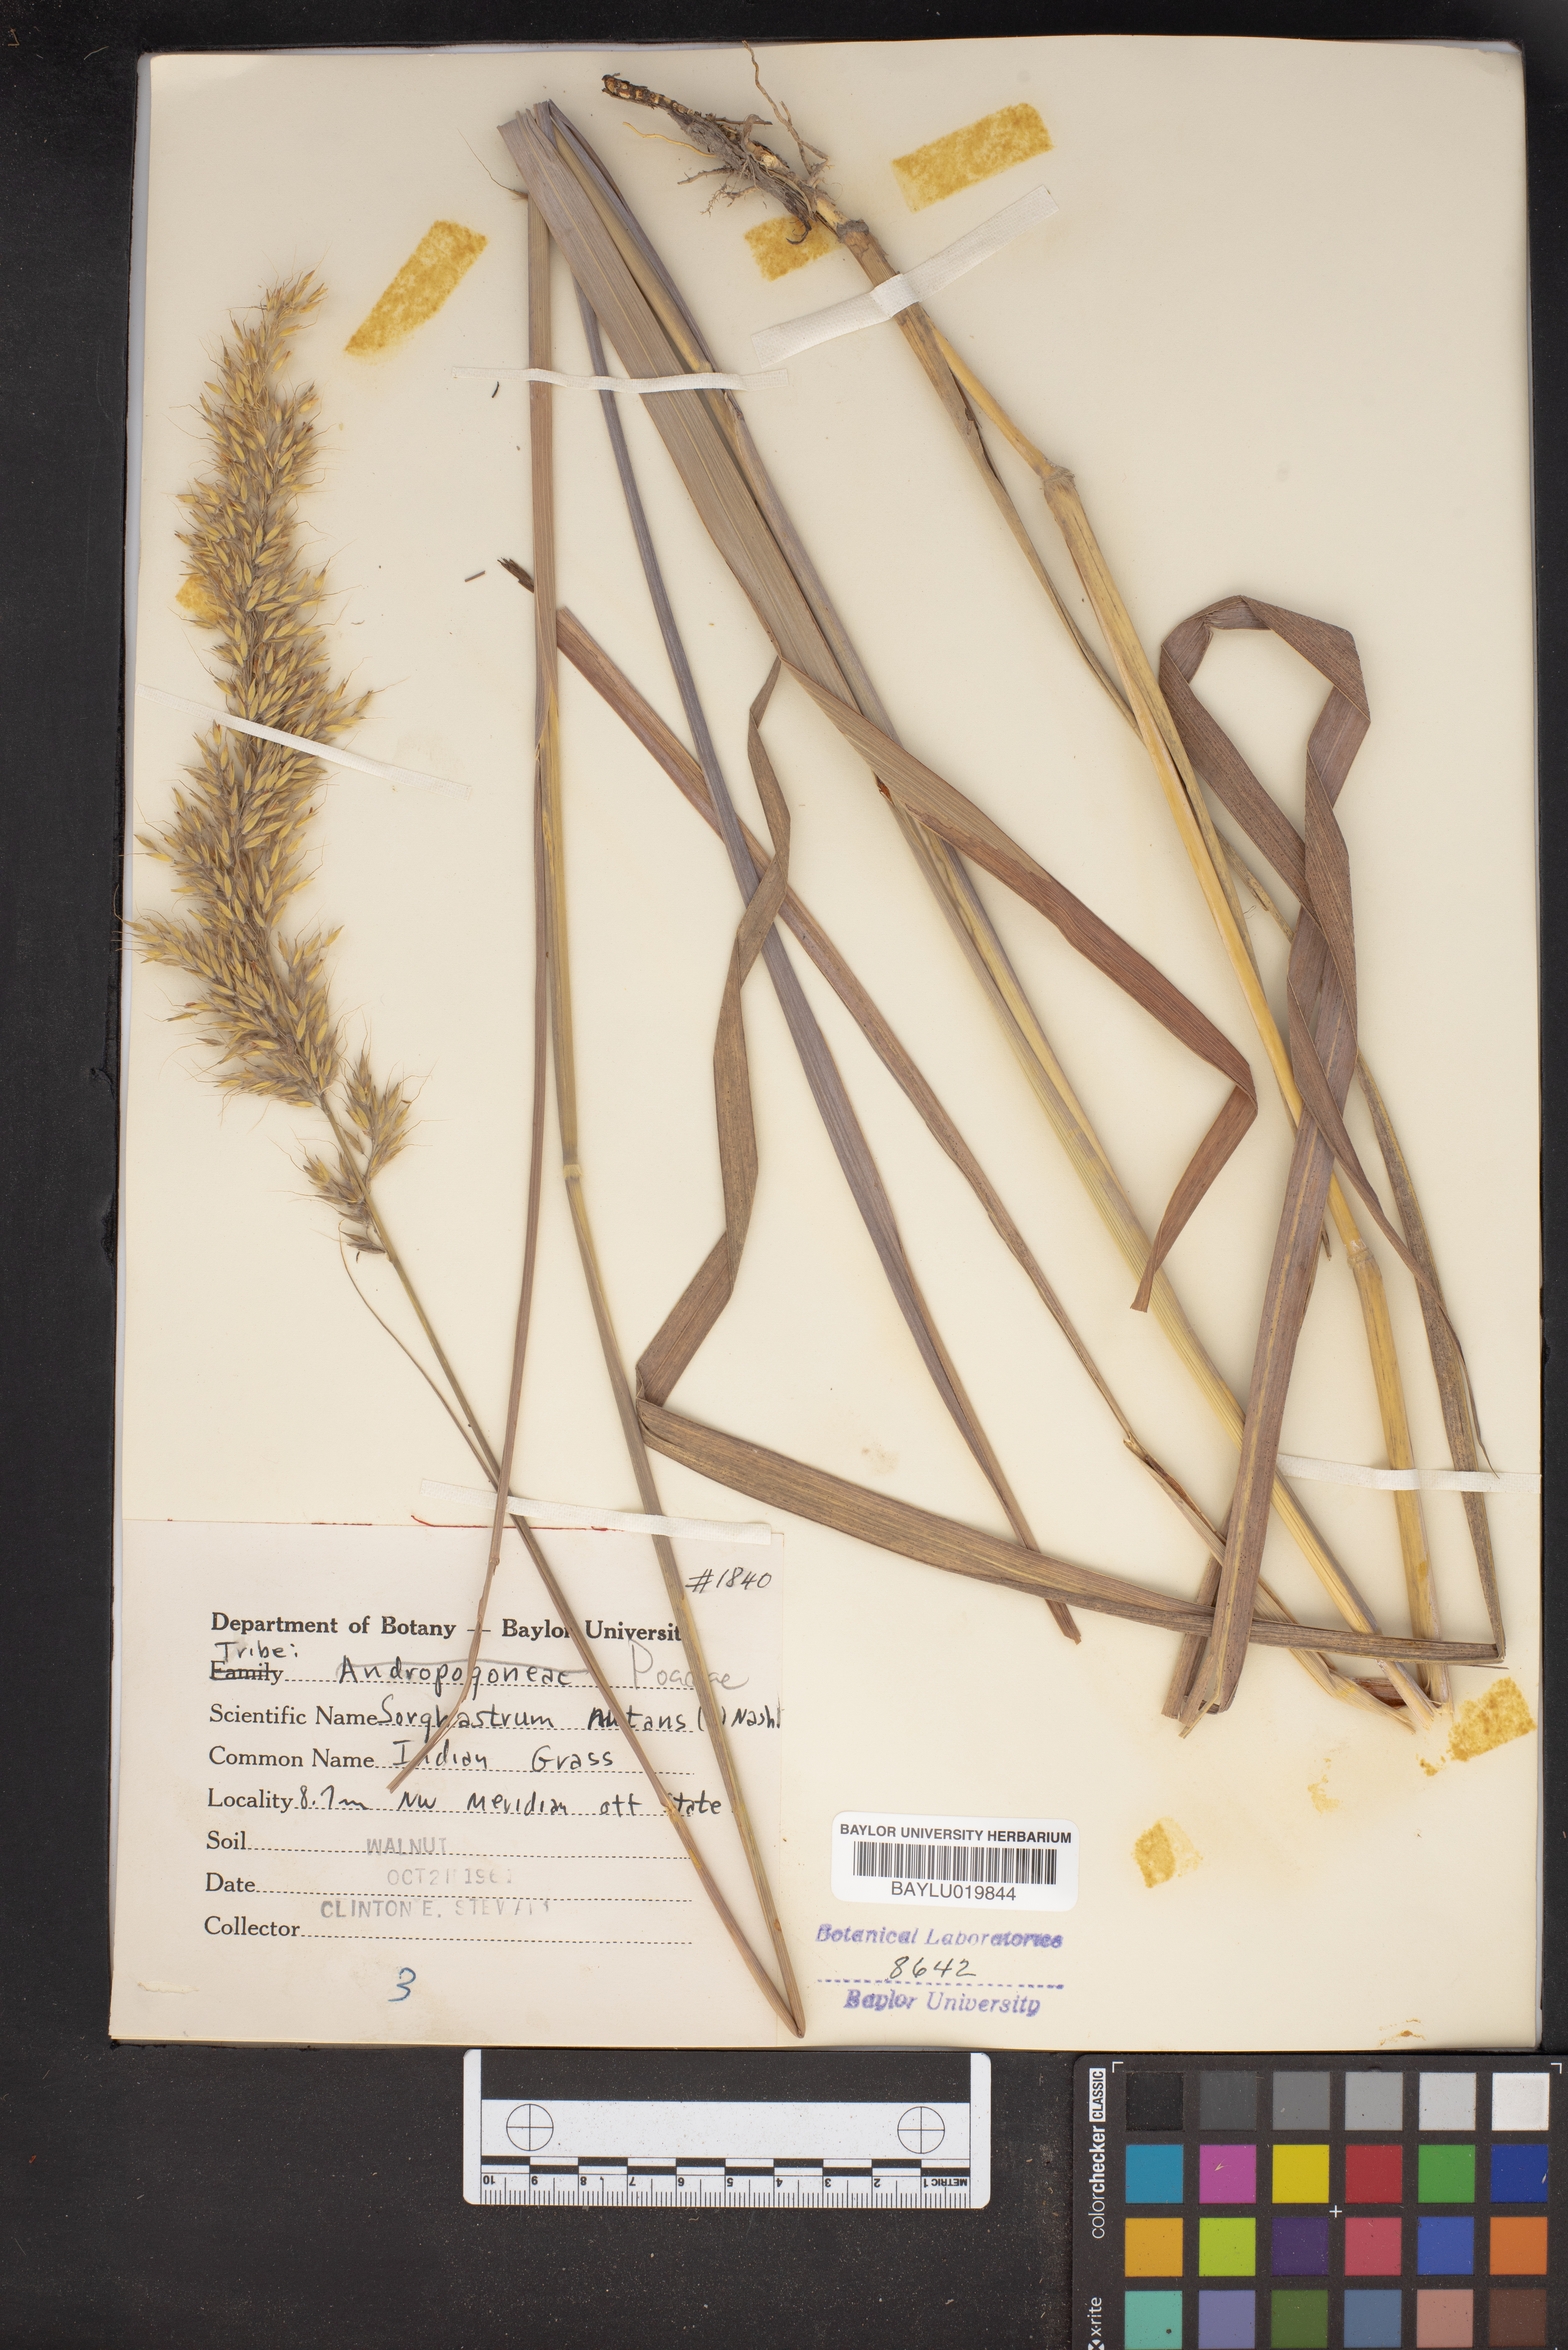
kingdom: Plantae
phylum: Tracheophyta
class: Liliopsida
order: Poales
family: Poaceae
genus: Sorghastrum
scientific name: Sorghastrum nutans
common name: Indian grass
